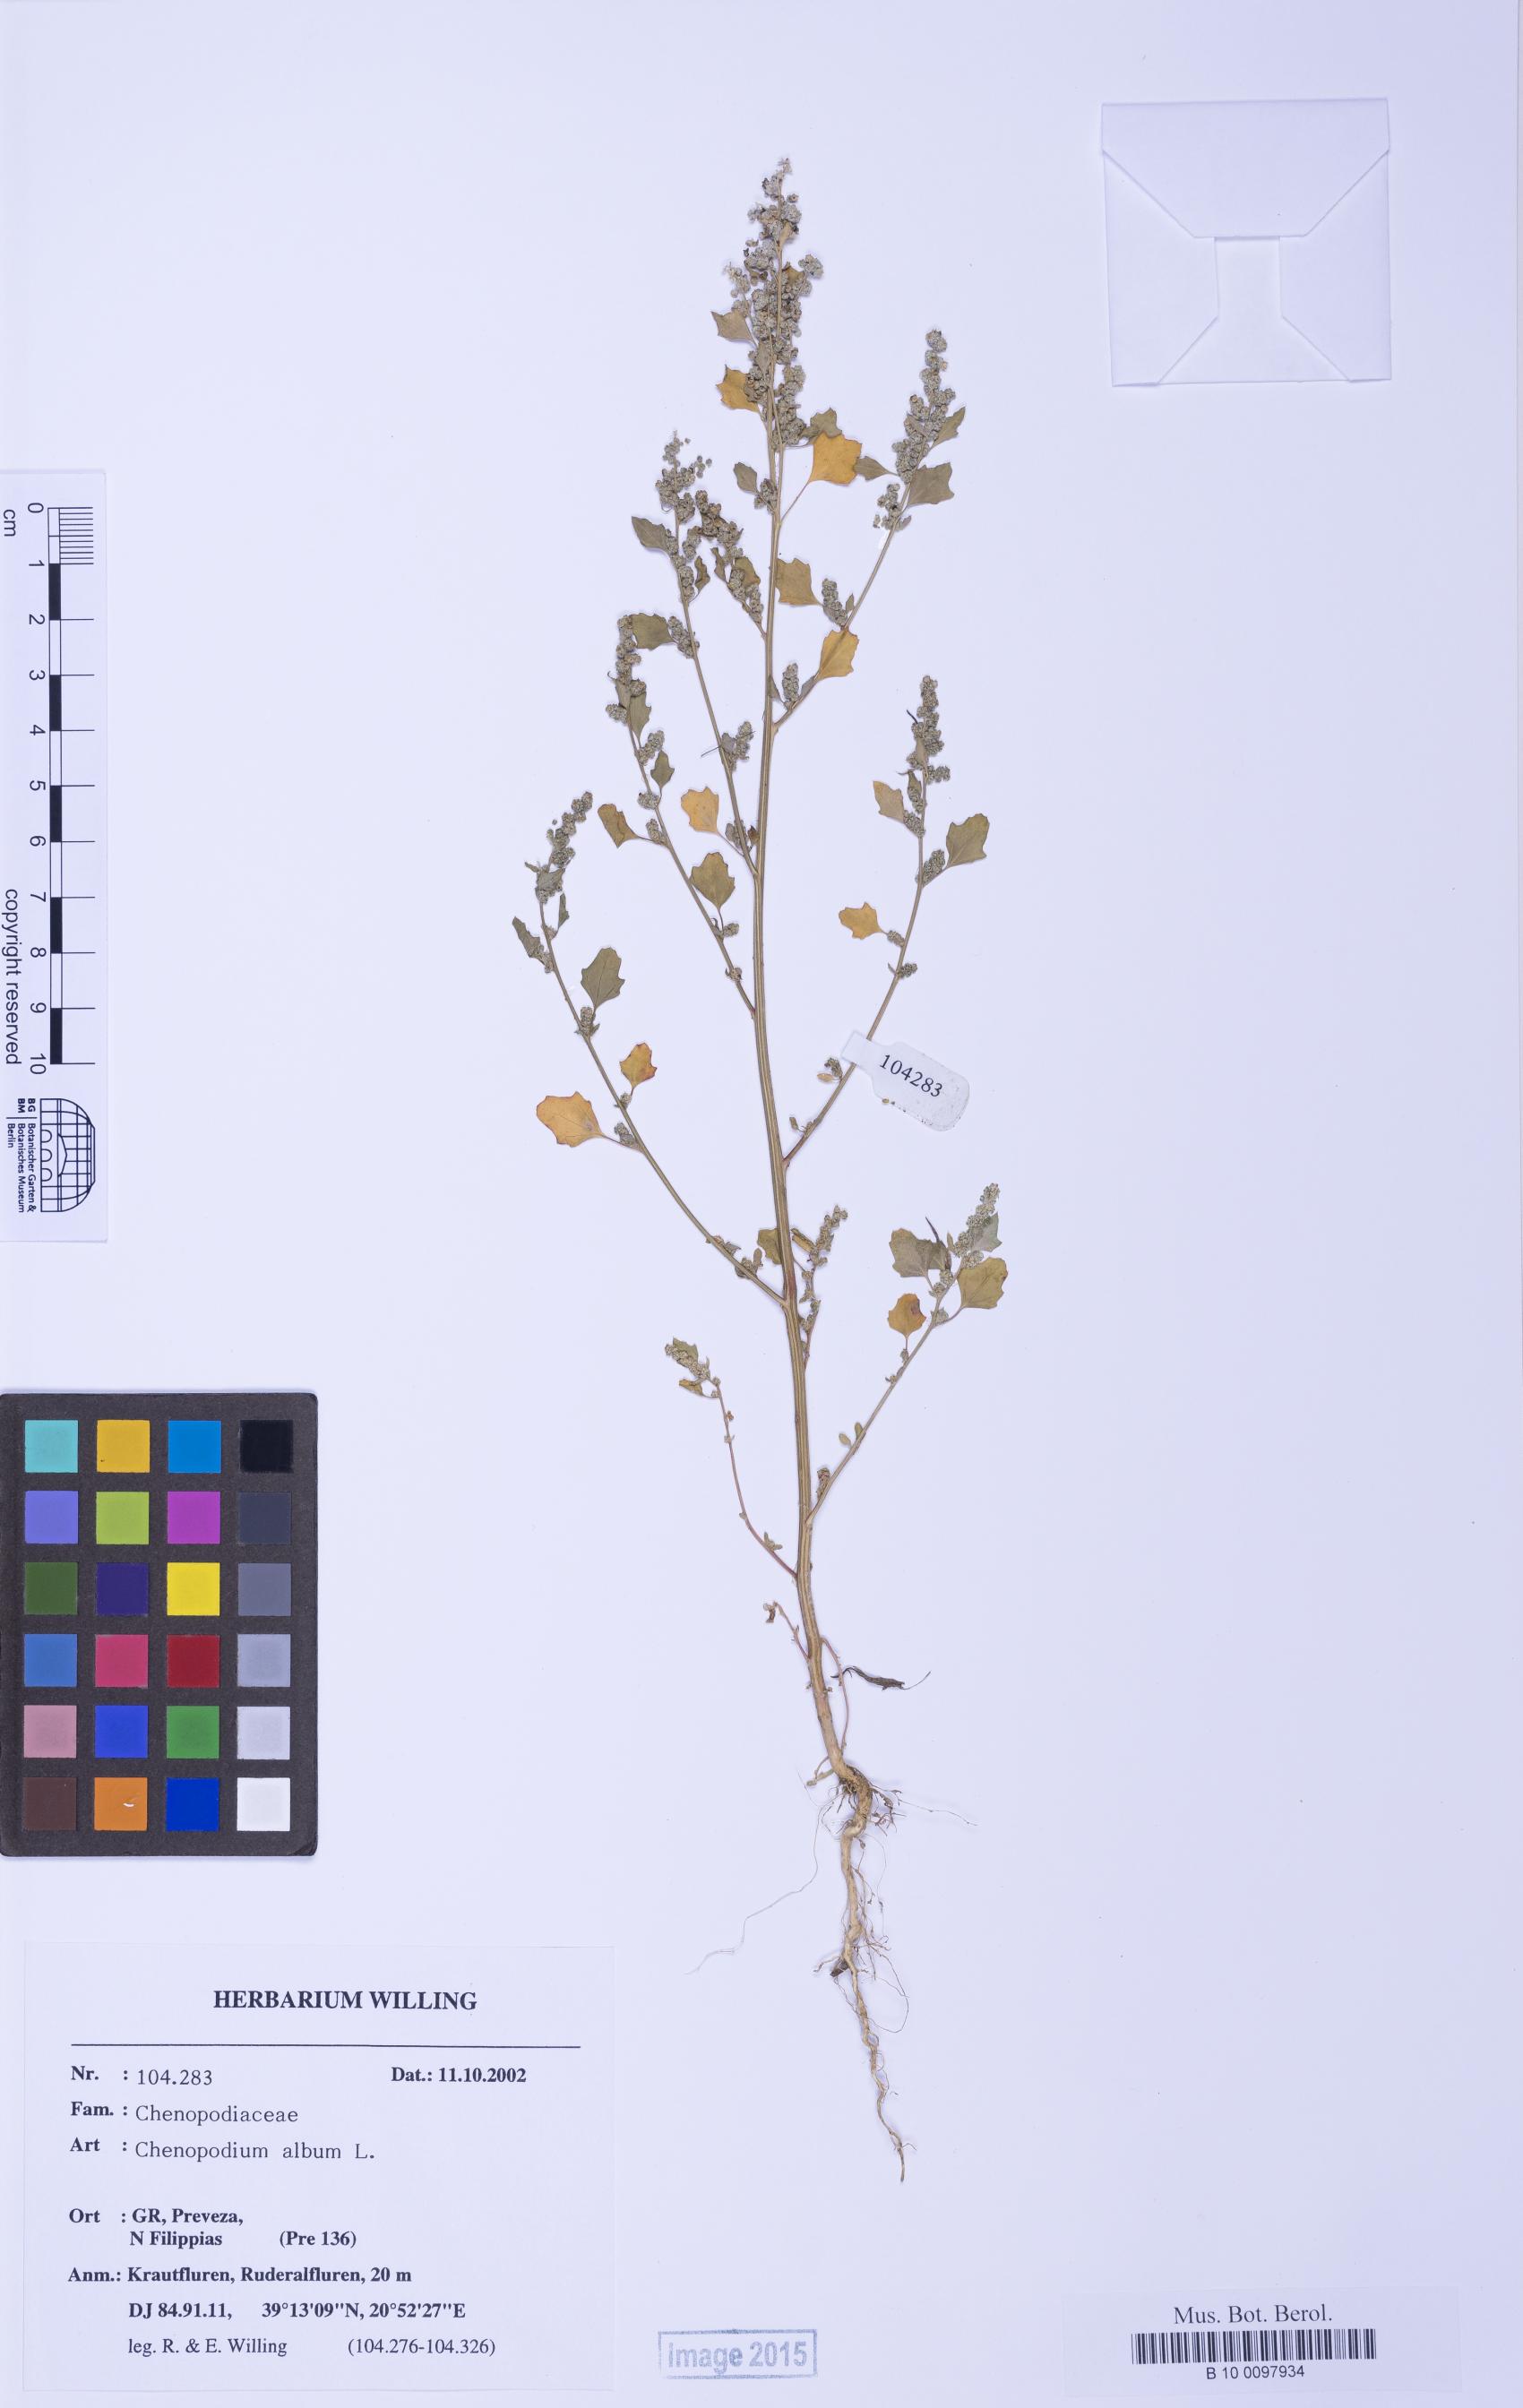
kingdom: Plantae
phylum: Tracheophyta
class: Magnoliopsida
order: Caryophyllales
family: Amaranthaceae
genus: Chenopodium
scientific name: Chenopodium opulifolium
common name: Grey goosefoot
